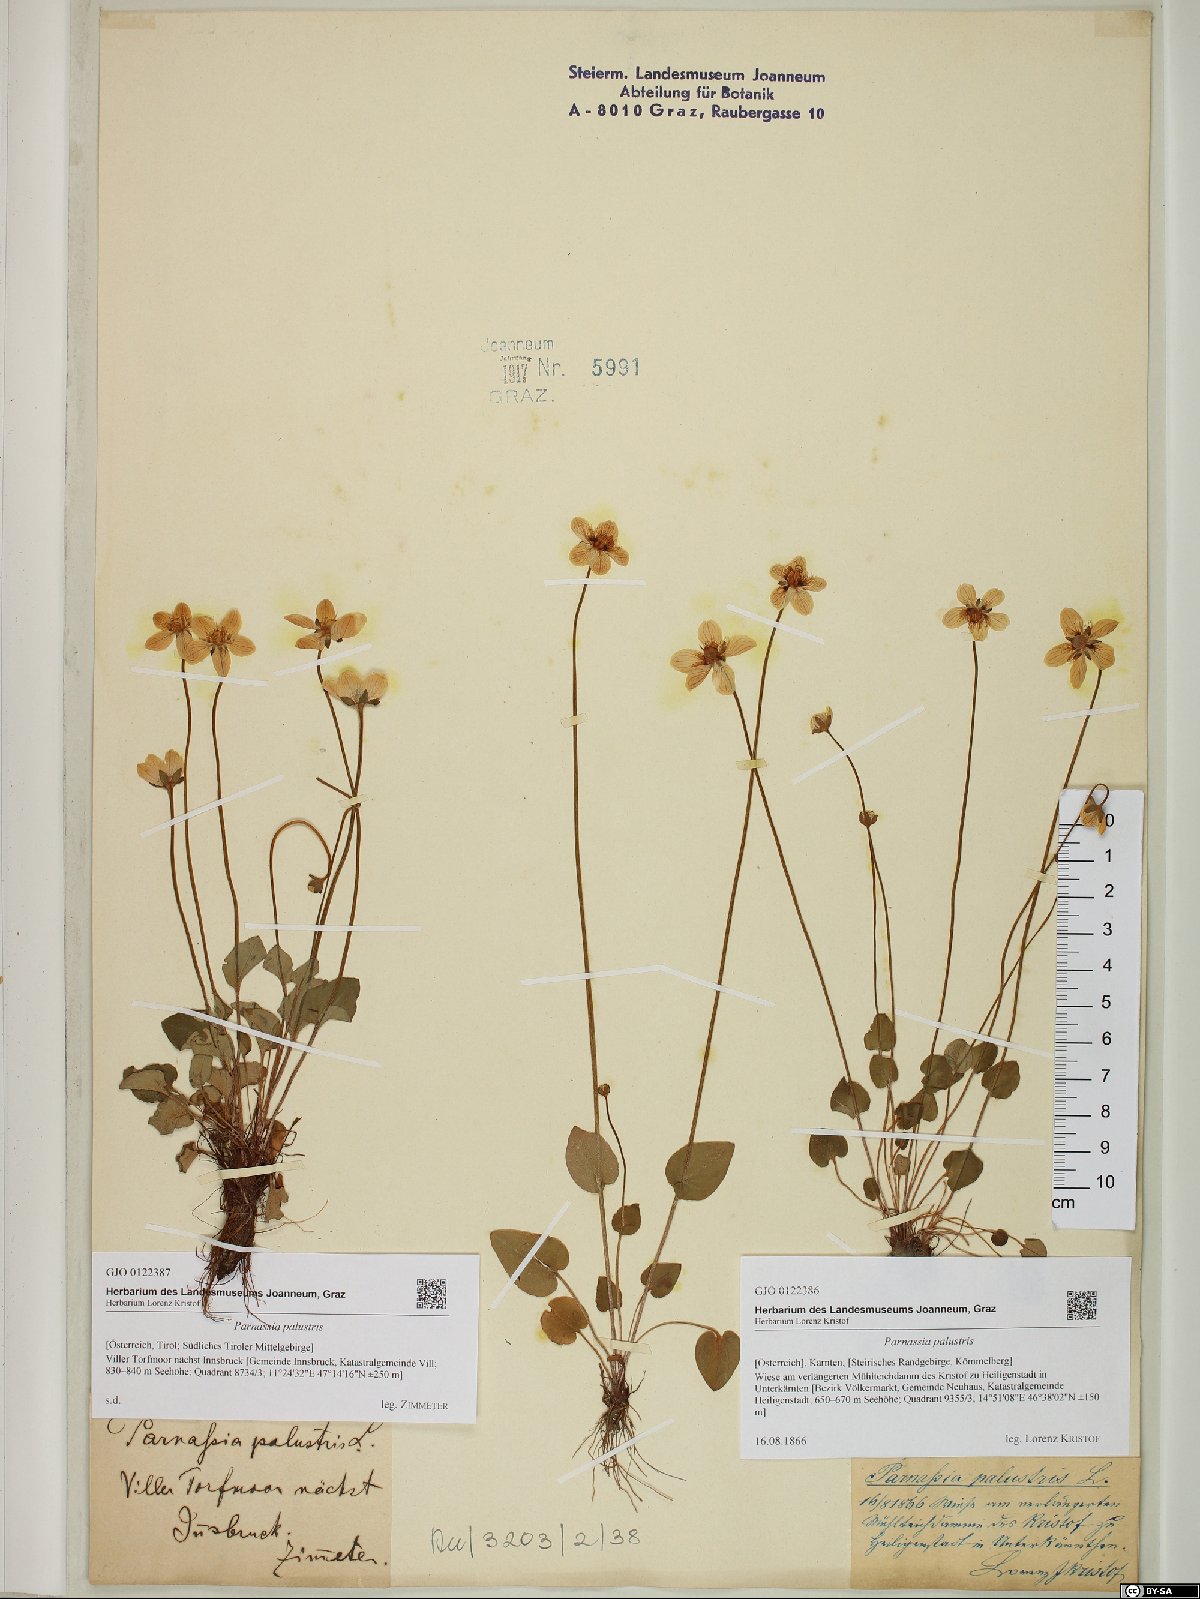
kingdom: Plantae
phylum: Tracheophyta
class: Magnoliopsida
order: Celastrales
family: Parnassiaceae
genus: Parnassia
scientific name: Parnassia palustris
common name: Grass-of-parnassus
